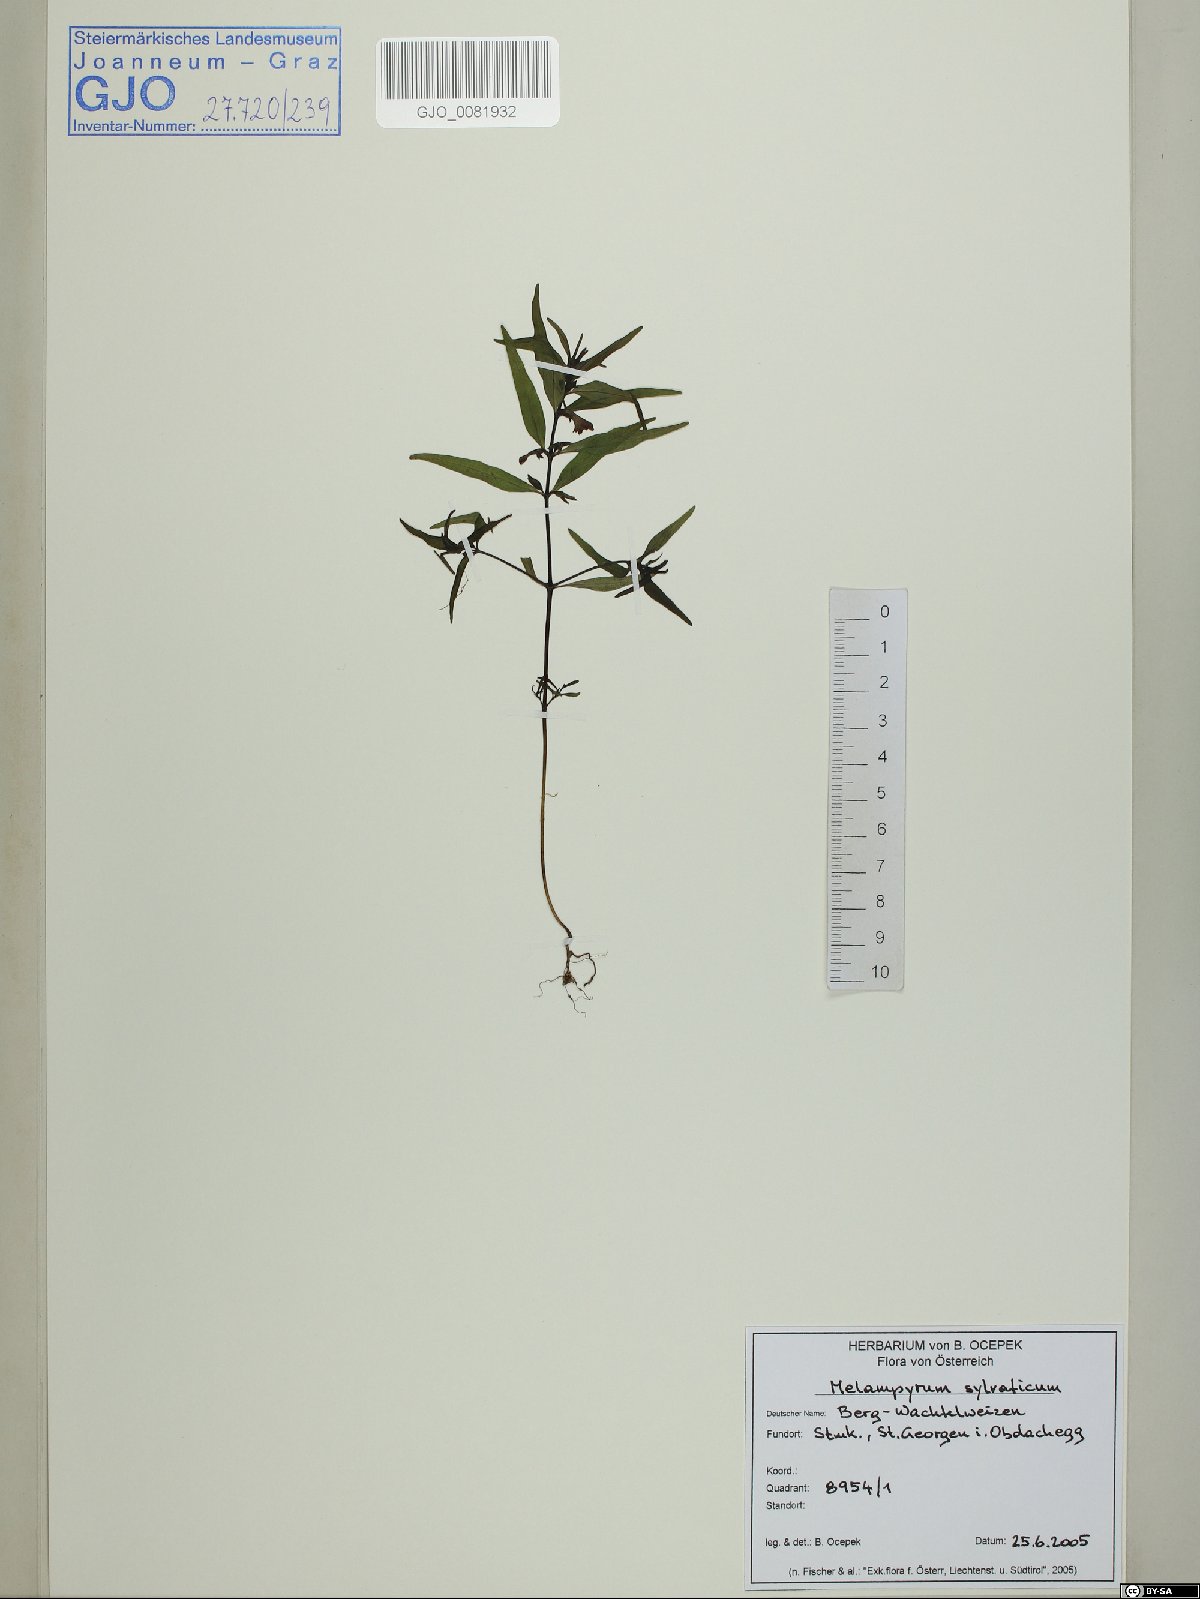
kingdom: Plantae
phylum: Tracheophyta
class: Magnoliopsida
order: Lamiales
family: Orobanchaceae
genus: Melampyrum
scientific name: Melampyrum sylvaticum
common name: Small cow-wheat
